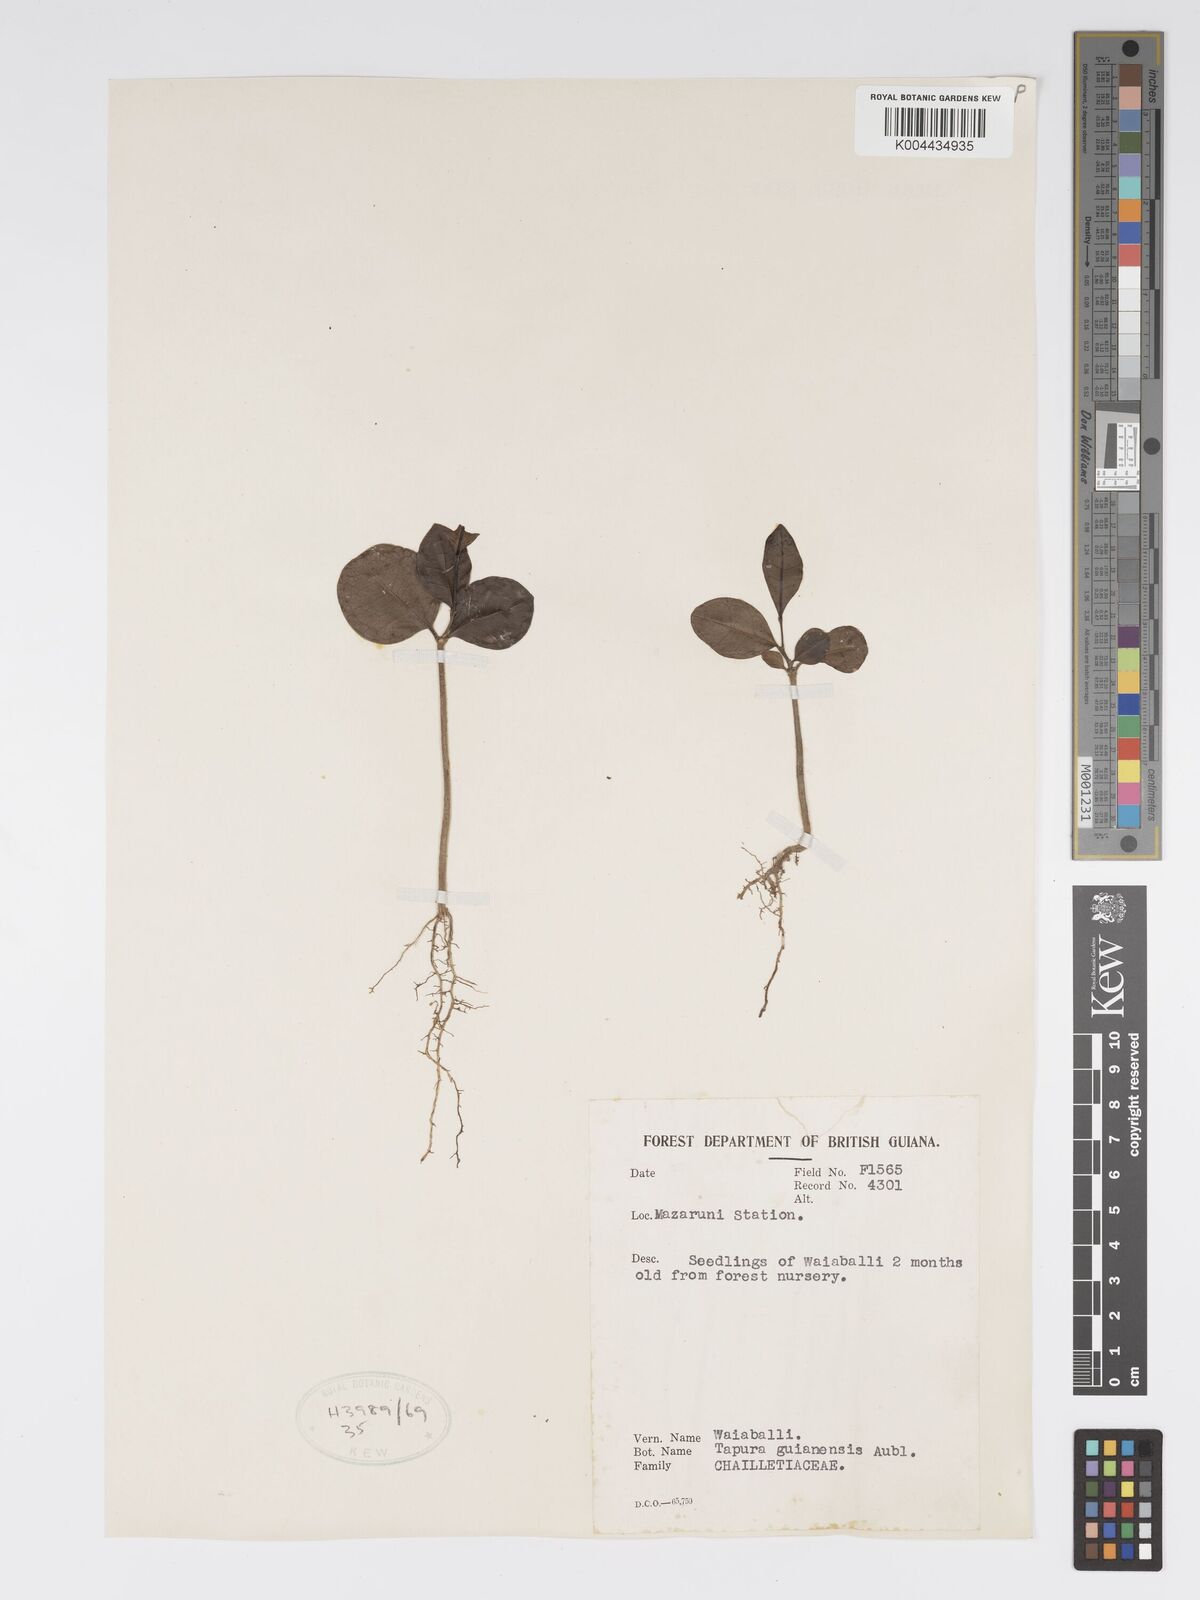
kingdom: Plantae
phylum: Tracheophyta
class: Magnoliopsida
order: Malpighiales
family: Dichapetalaceae
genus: Tapura
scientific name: Tapura guianensis
